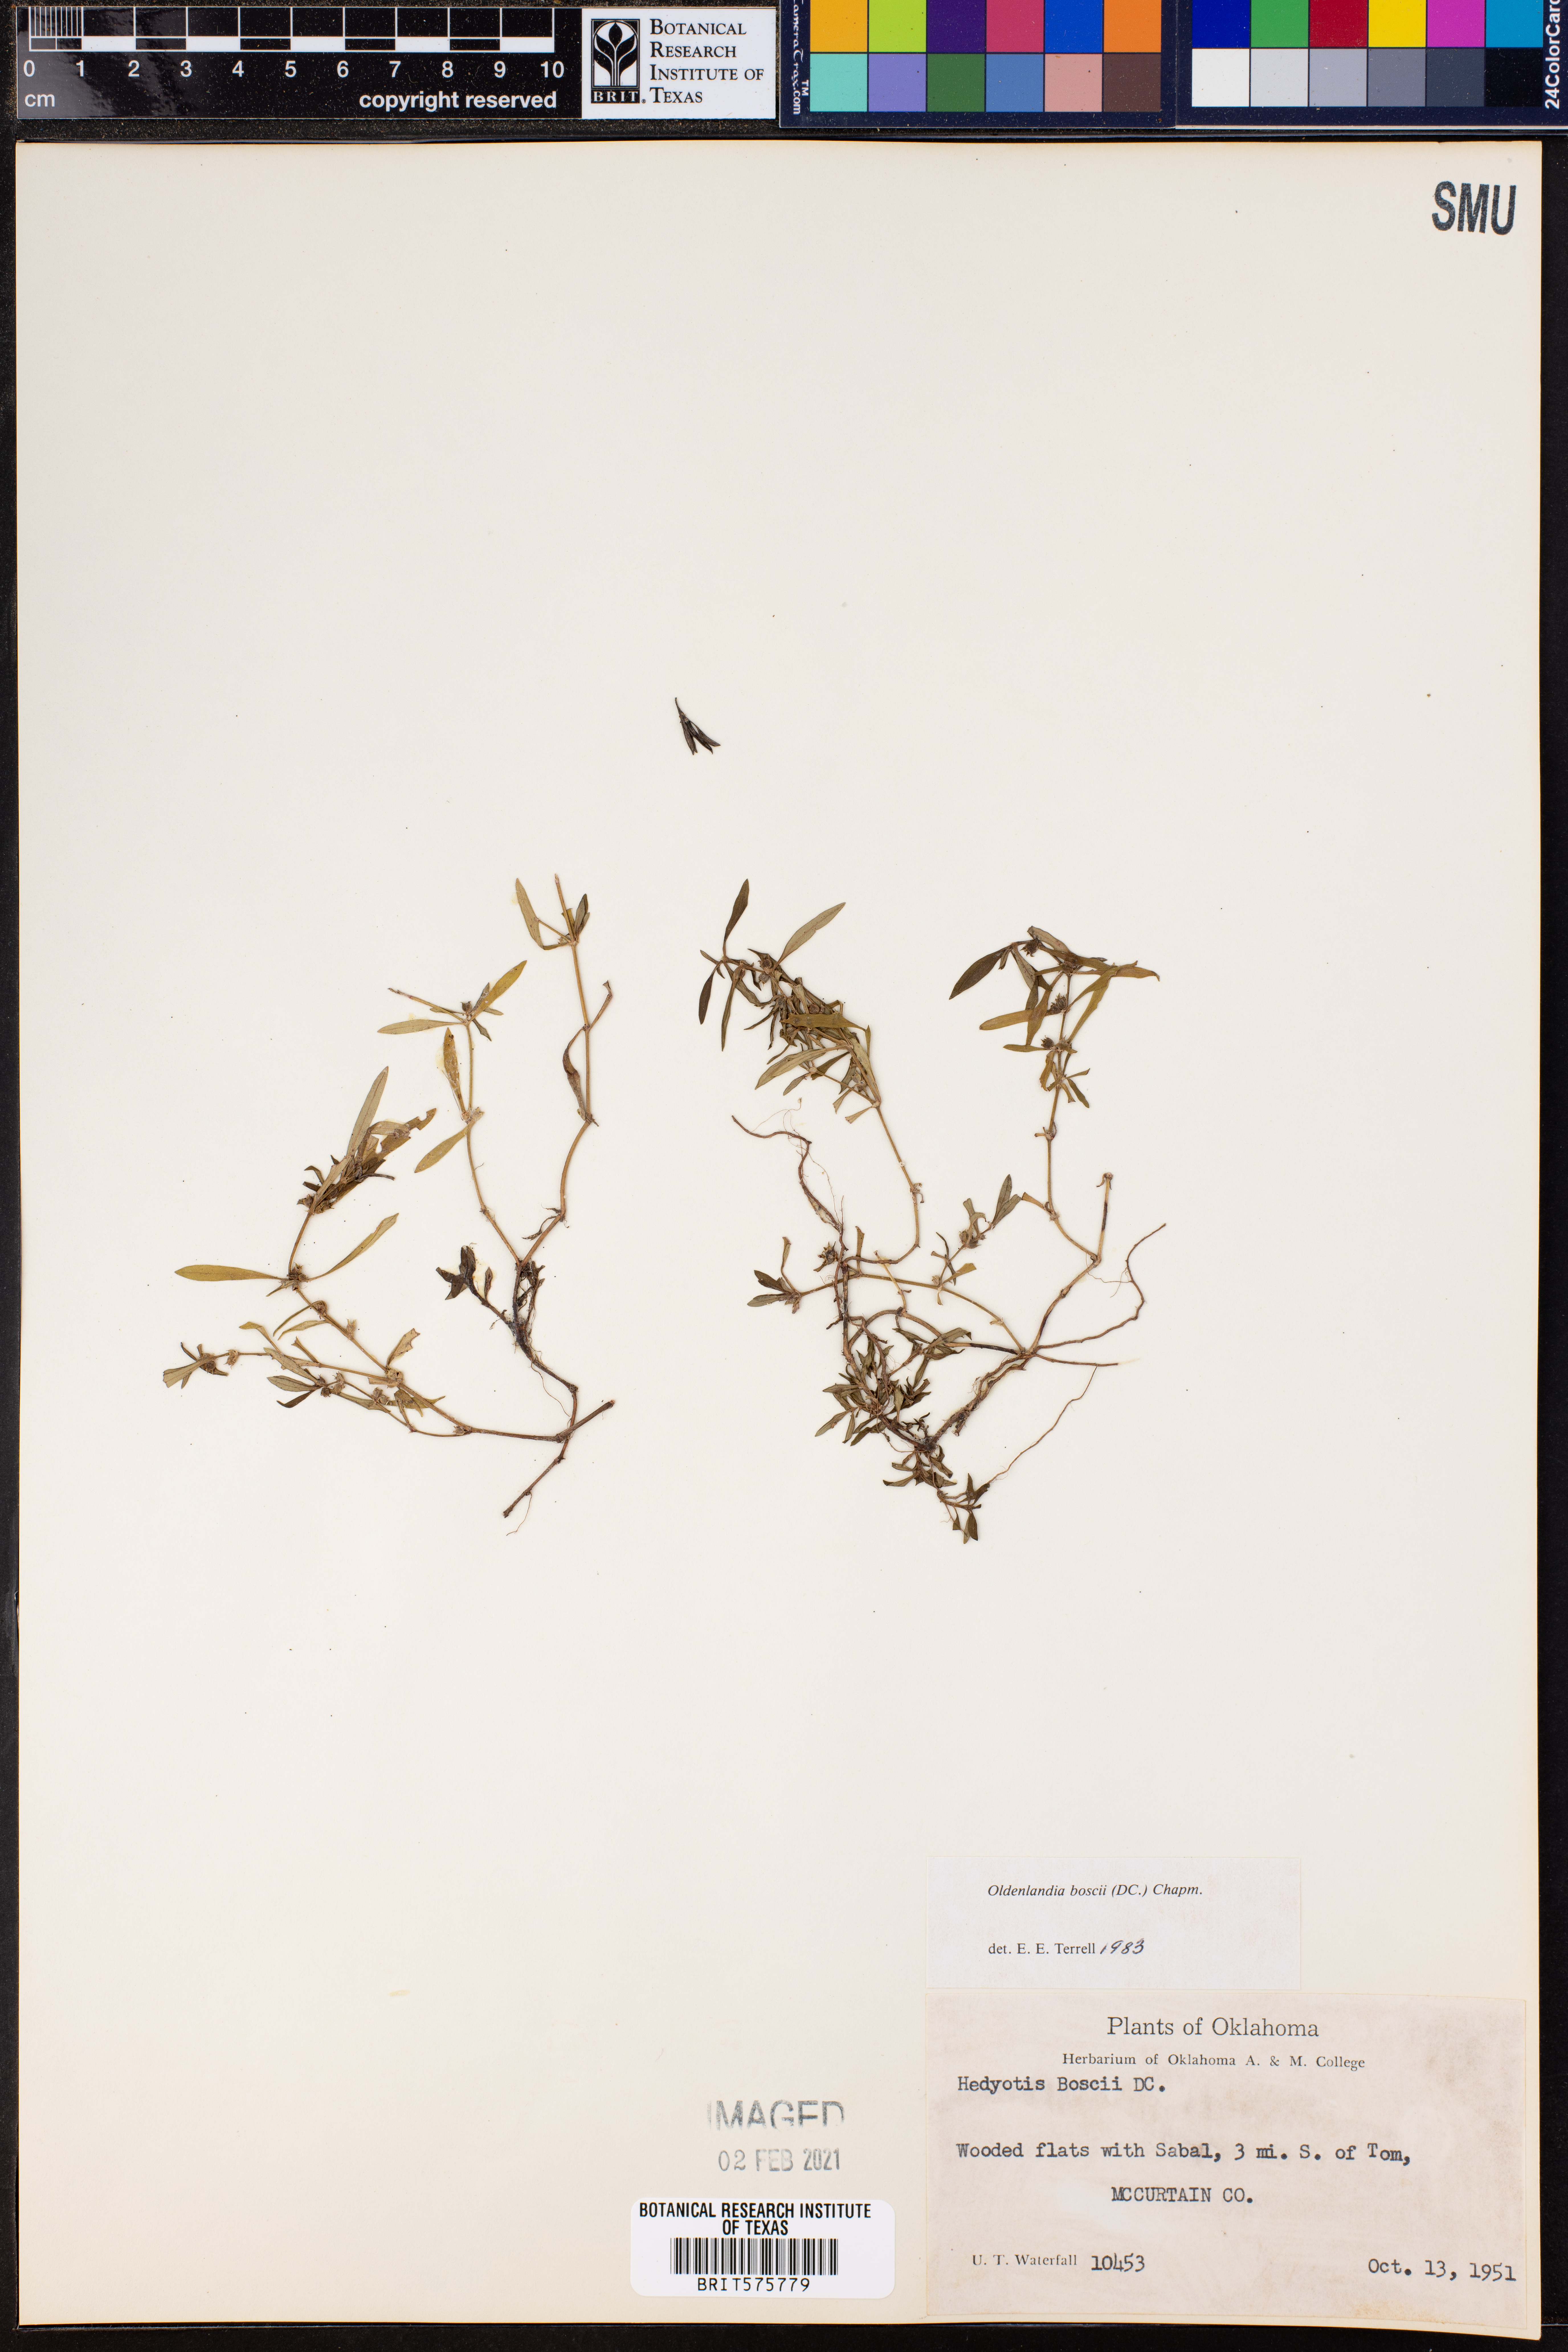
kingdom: Plantae
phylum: Tracheophyta
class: Magnoliopsida
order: Gentianales
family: Rubiaceae
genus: Oldenlandia
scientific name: Oldenlandia boscii
